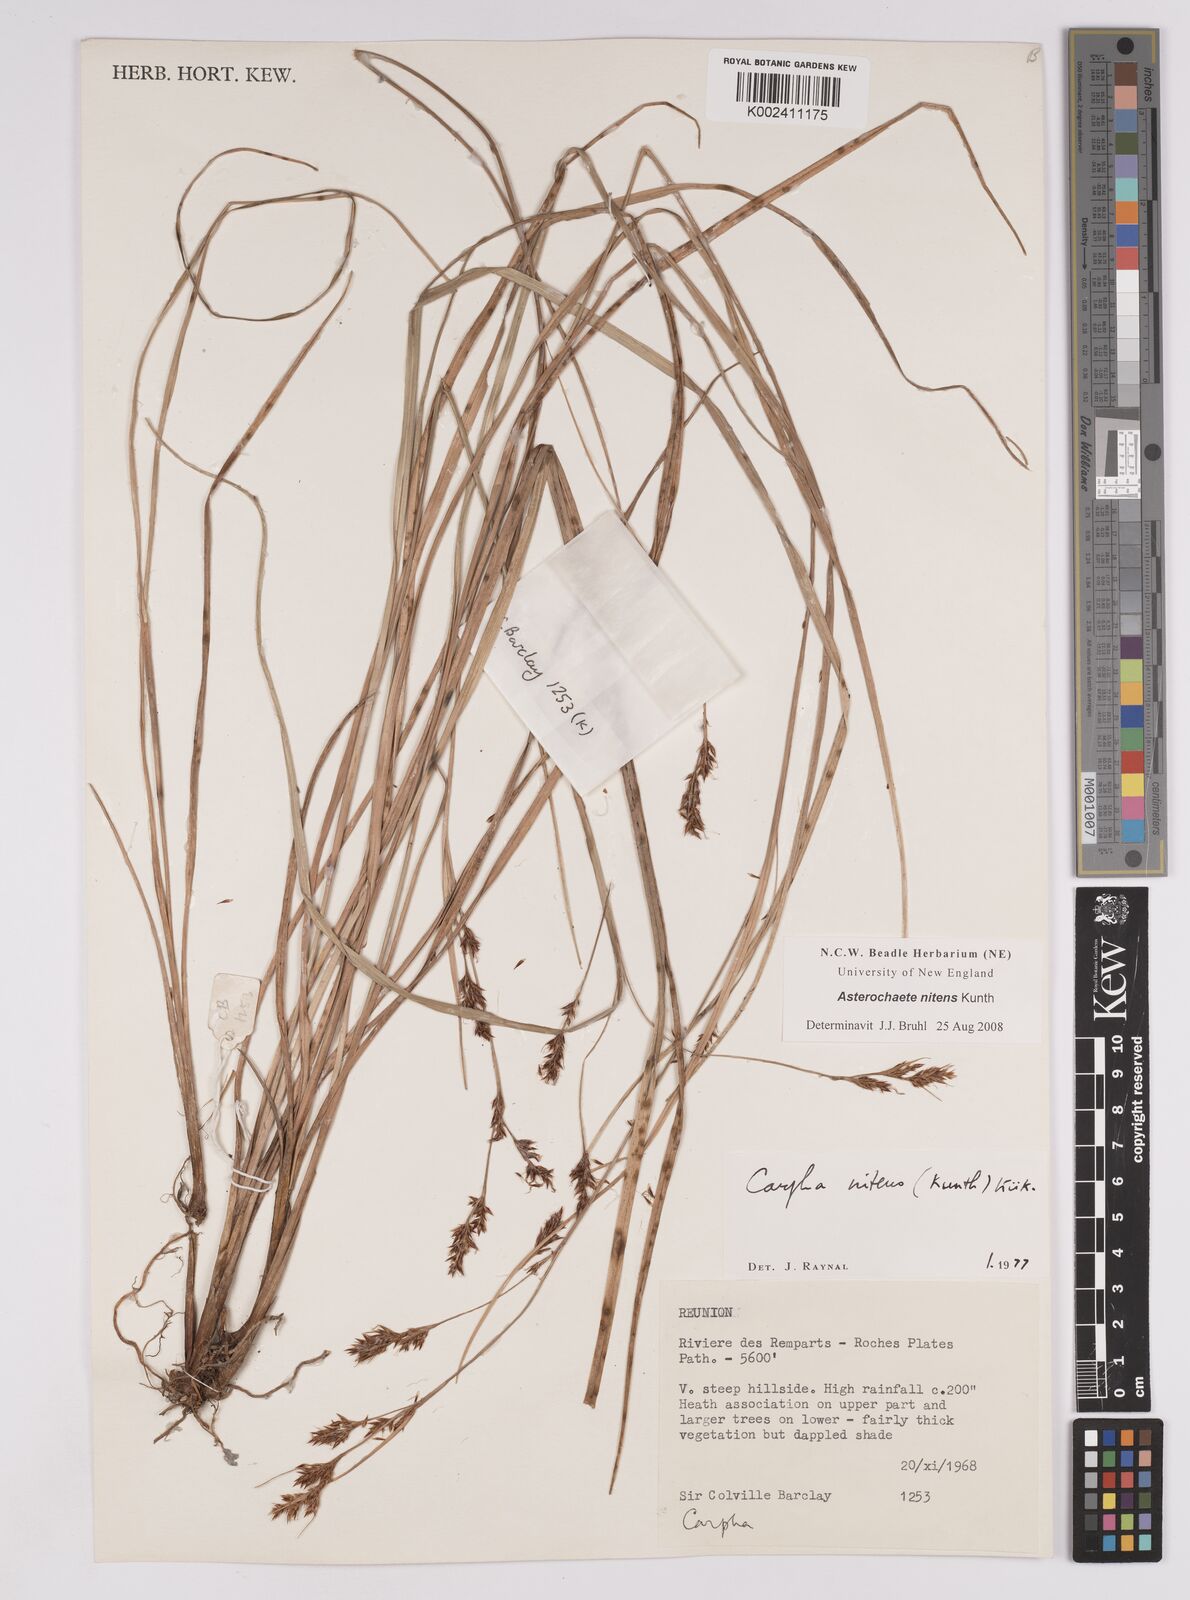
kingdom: Plantae
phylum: Tracheophyta
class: Liliopsida
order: Poales
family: Cyperaceae
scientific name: Cyperaceae
